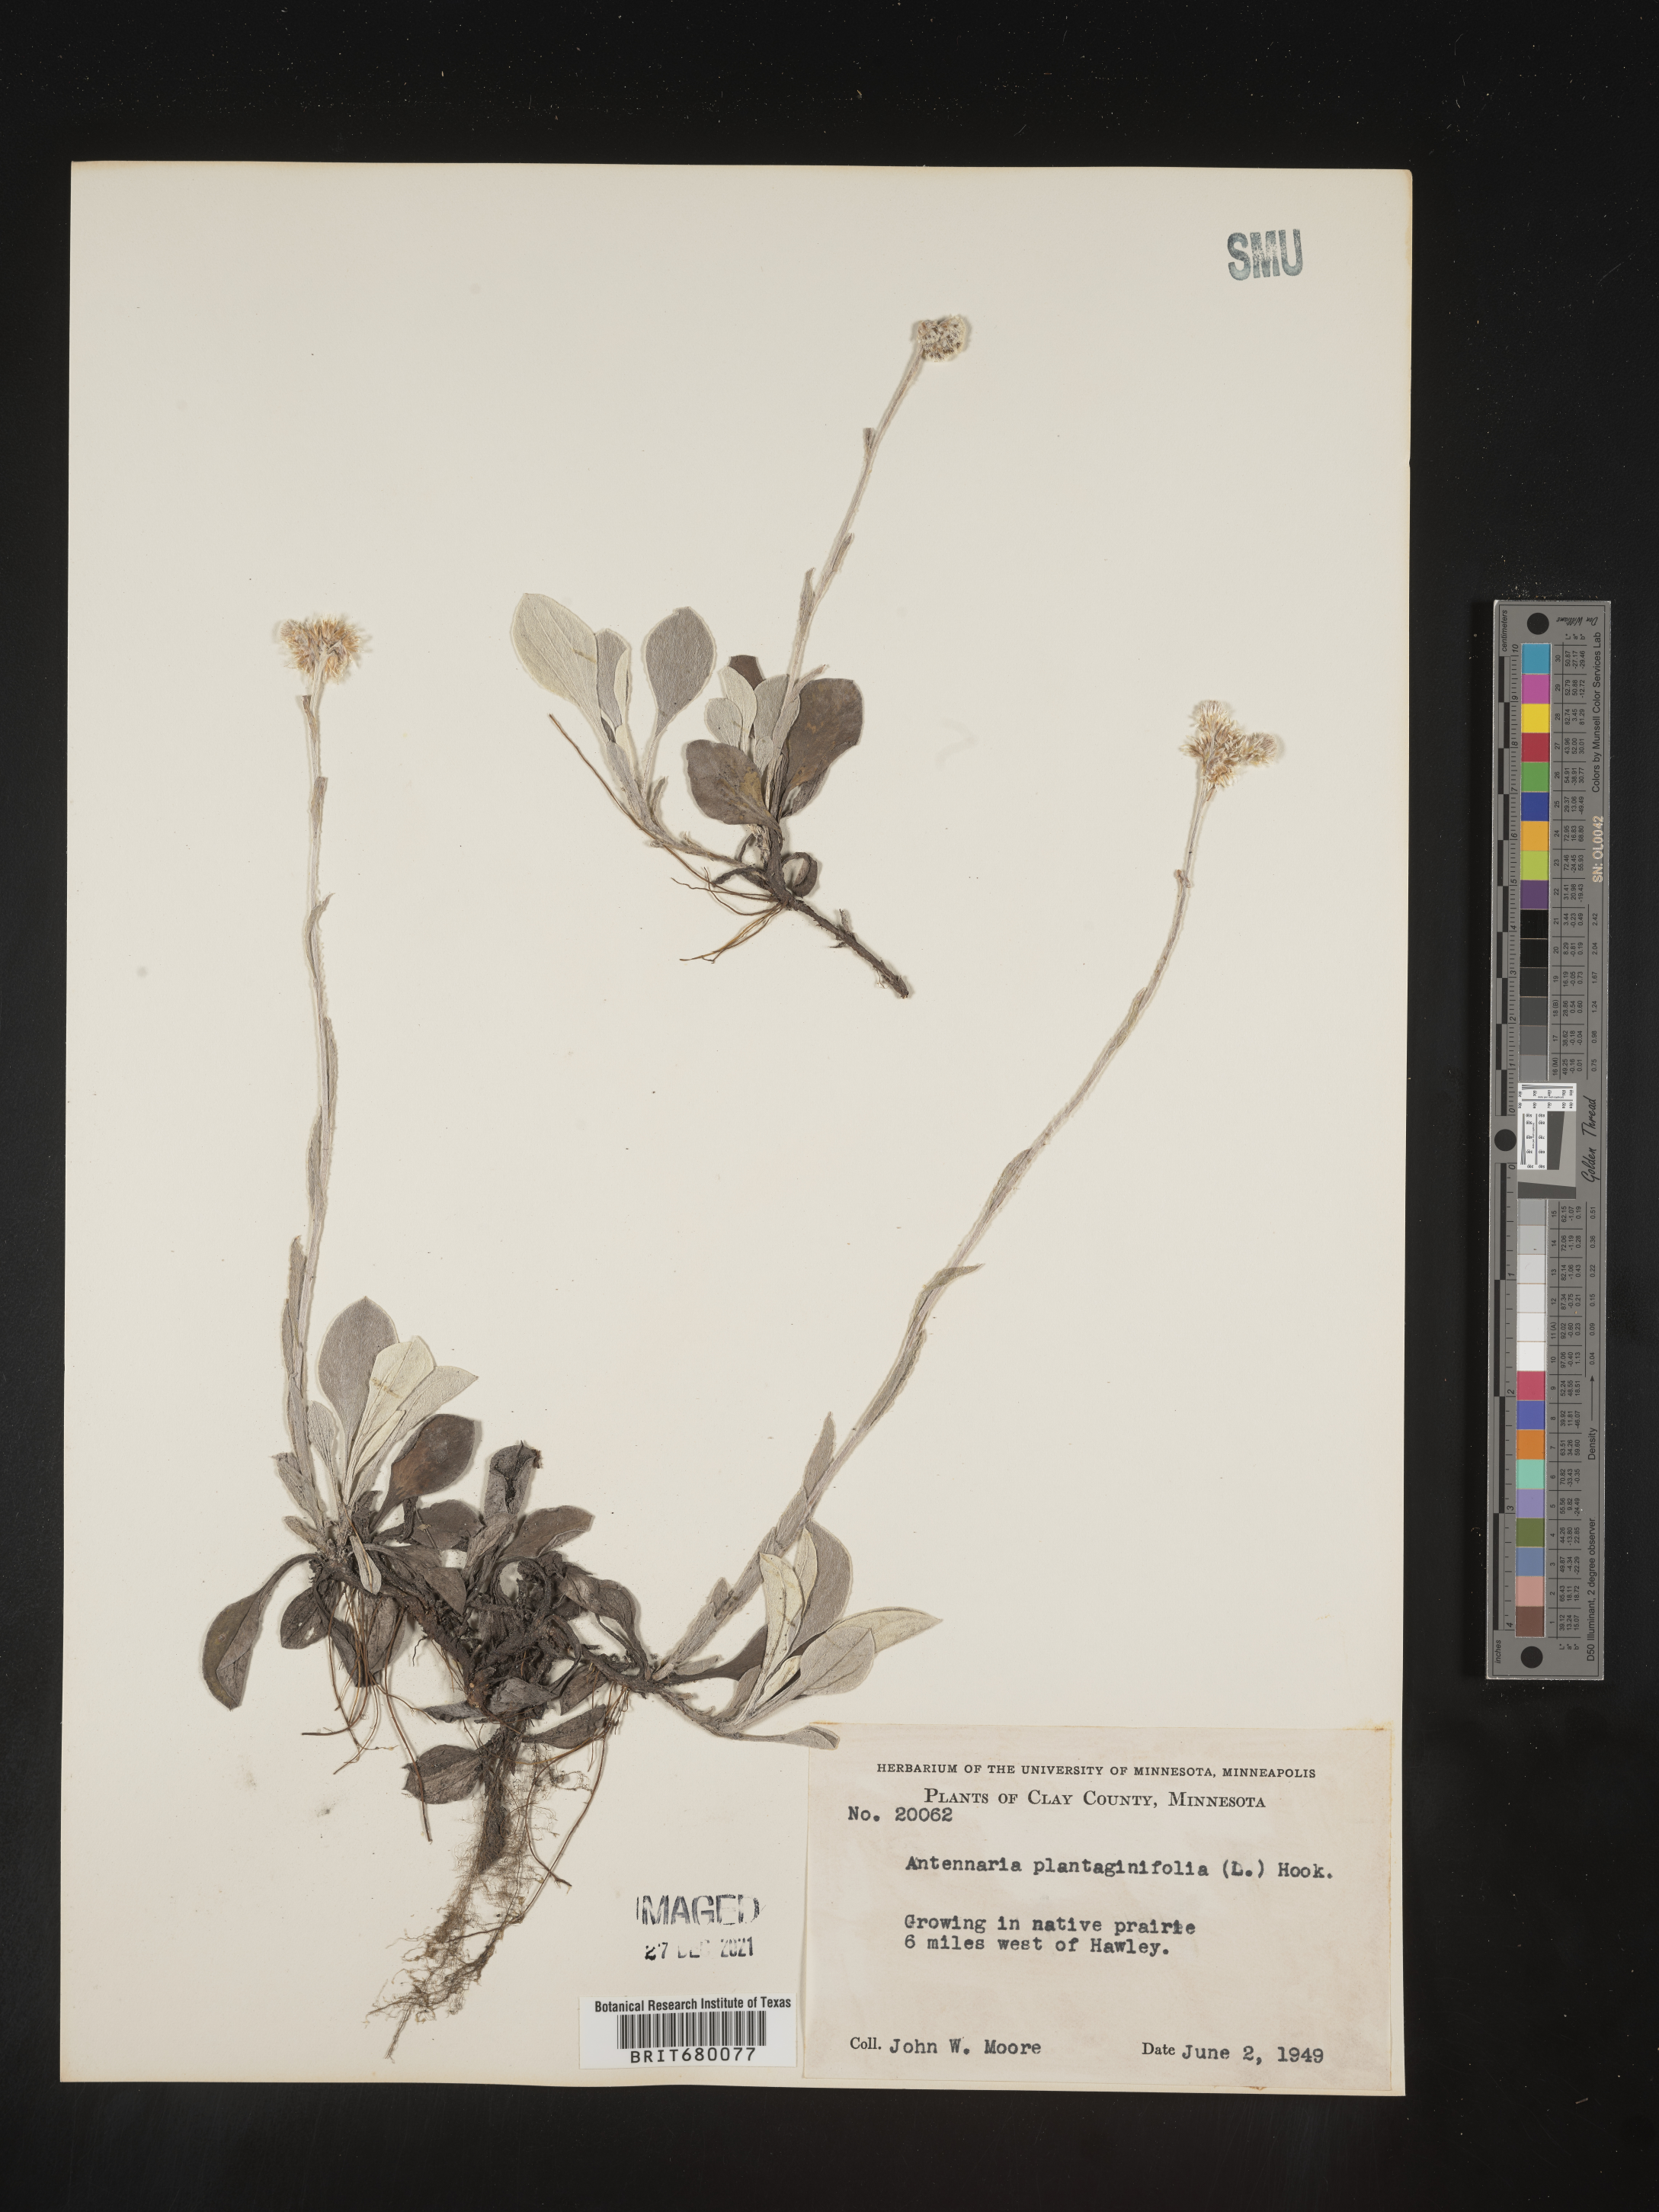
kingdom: Plantae
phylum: Tracheophyta
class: Magnoliopsida
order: Asterales
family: Asteraceae
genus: Antennaria
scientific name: Antennaria plantaginifolia
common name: Plantain-leaved pussytoes
